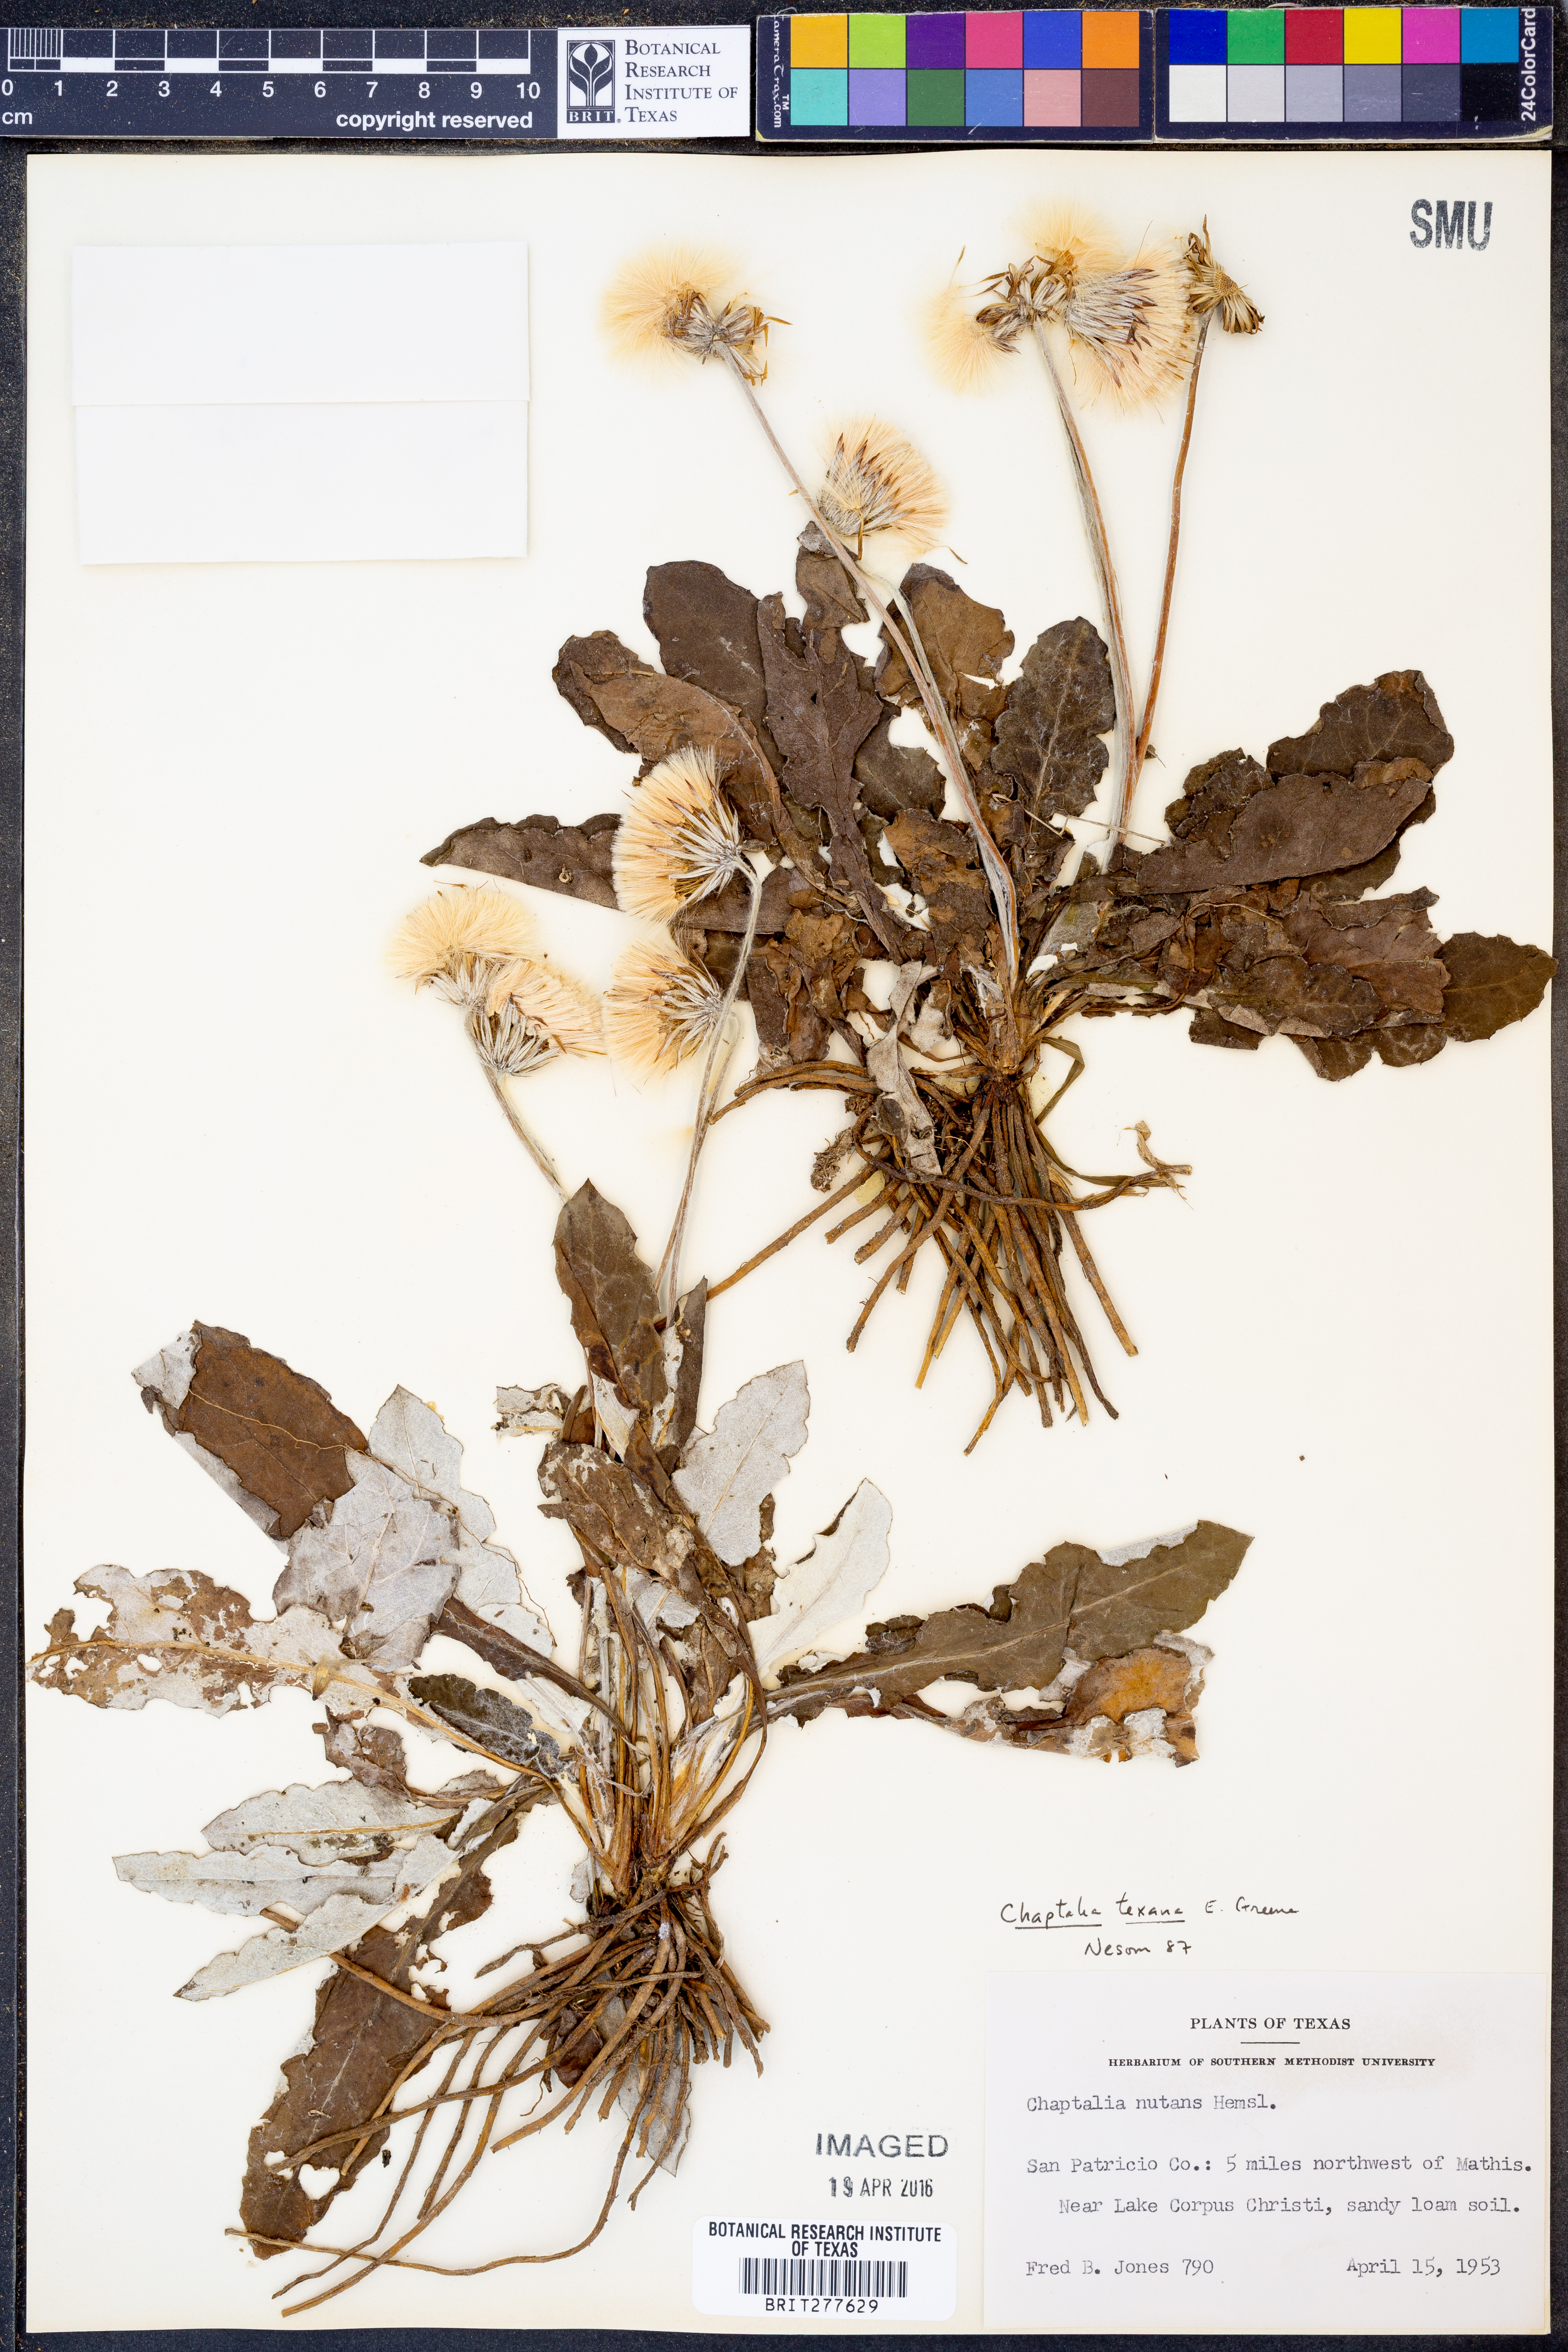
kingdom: Plantae
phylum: Tracheophyta
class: Magnoliopsida
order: Asterales
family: Asteraceae
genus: Chaptalia
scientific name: Chaptalia texana
